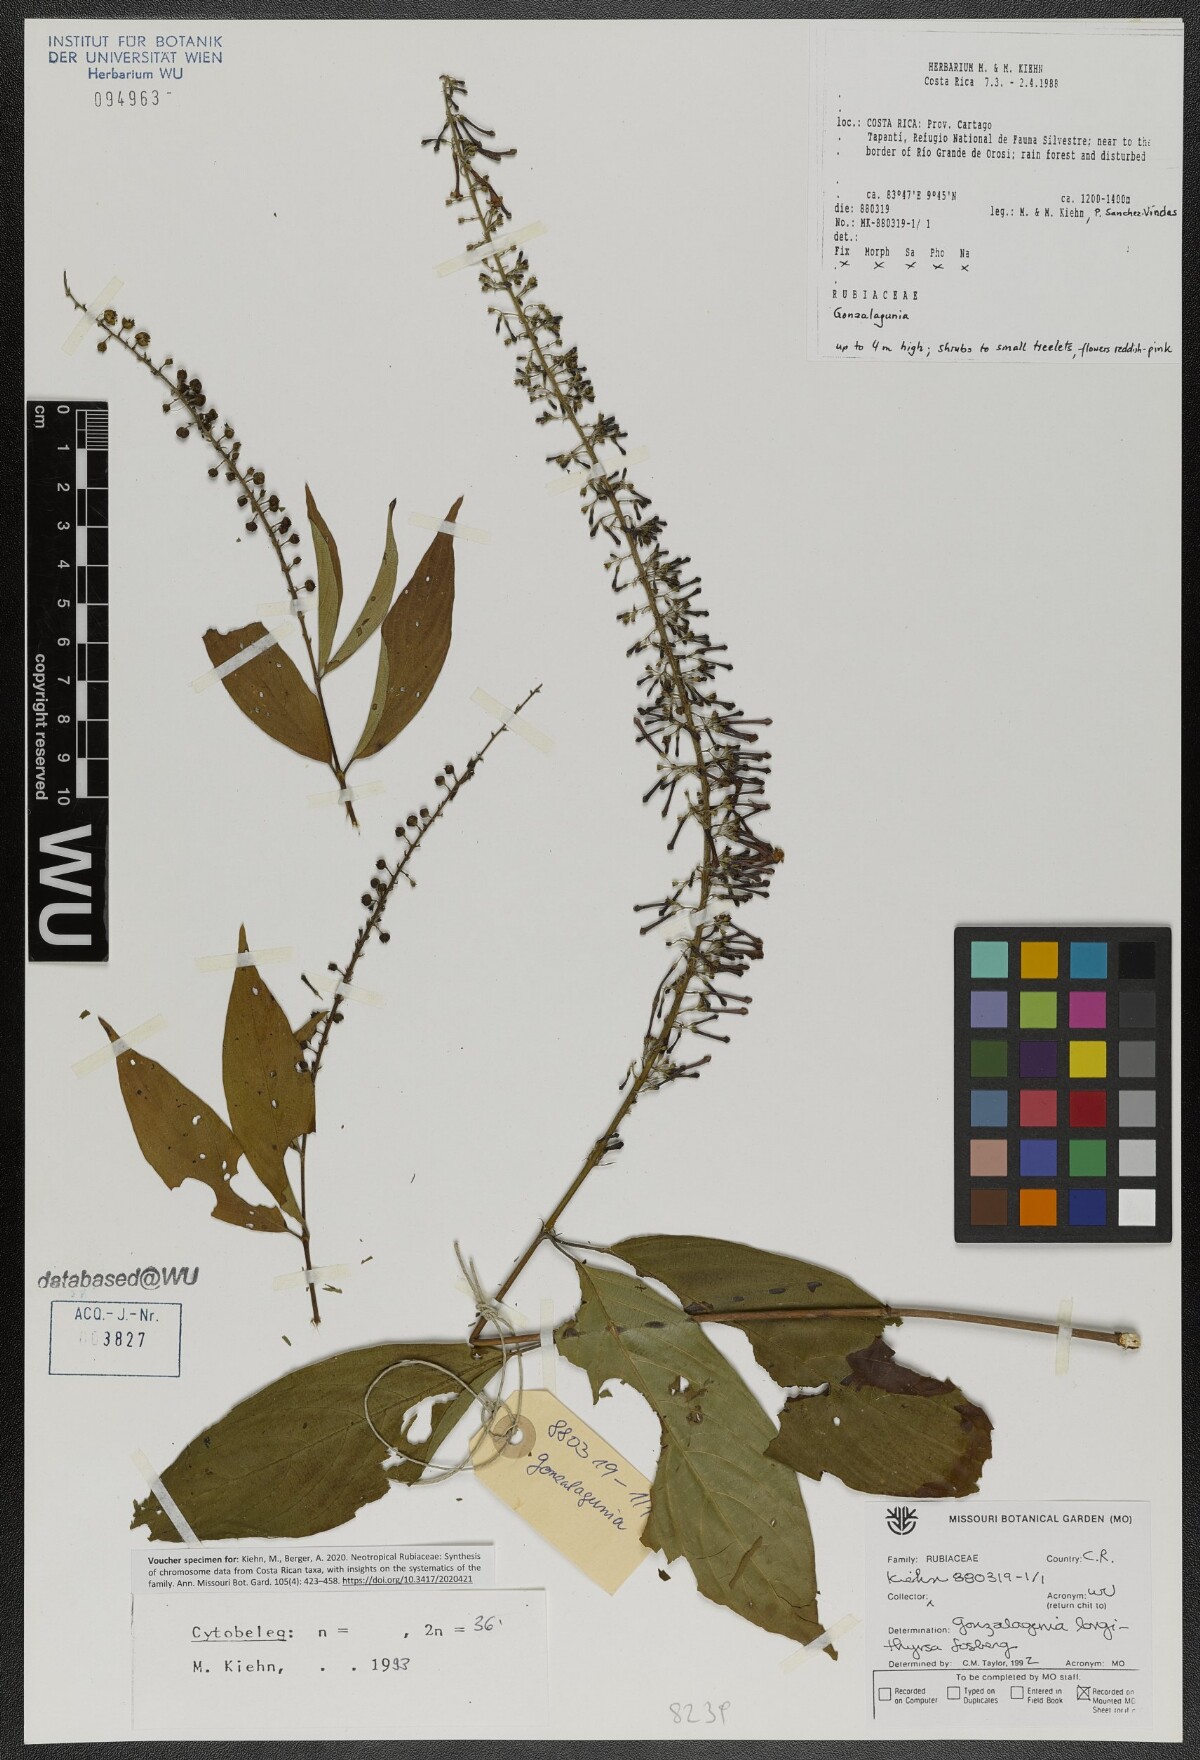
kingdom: Plantae
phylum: Tracheophyta
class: Magnoliopsida
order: Gentianales
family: Rubiaceae
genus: Gonzalagunia
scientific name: Gonzalagunia longithyrsa
